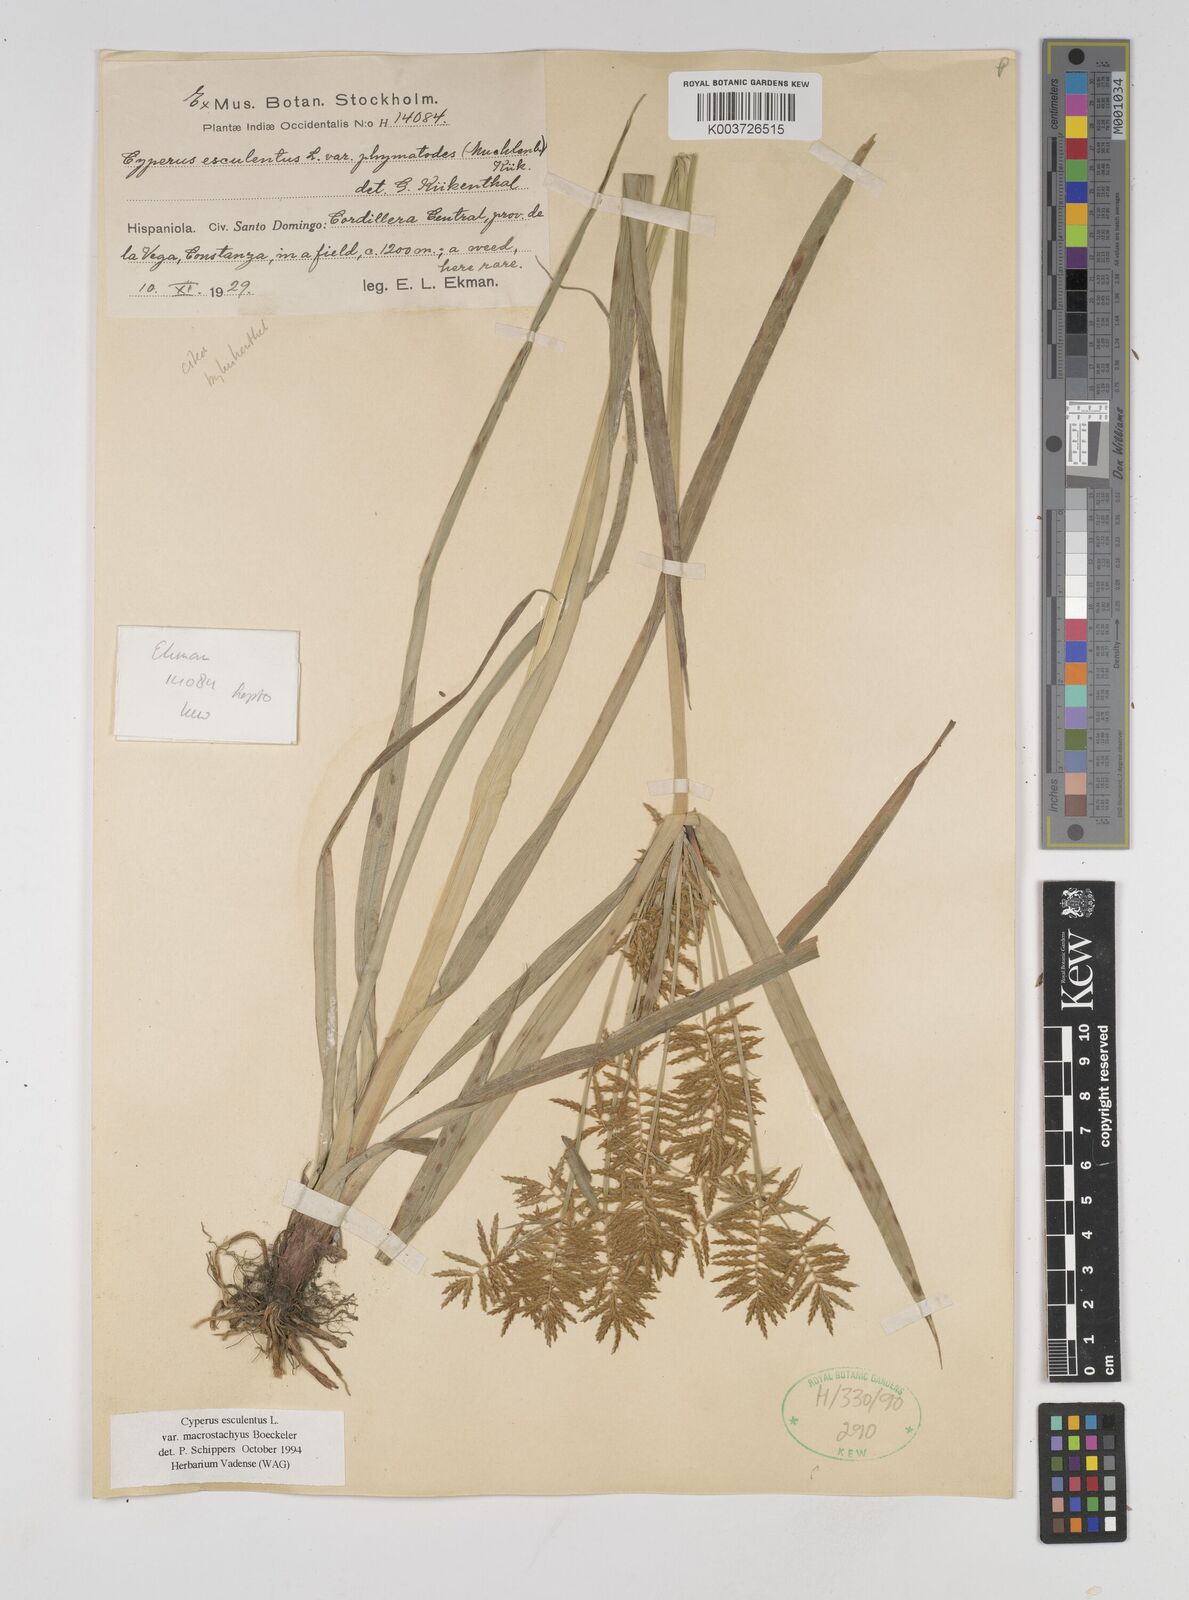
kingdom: Plantae
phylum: Tracheophyta
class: Liliopsida
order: Poales
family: Cyperaceae
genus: Cyperus
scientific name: Cyperus esculentus
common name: Yellow nutsedge
